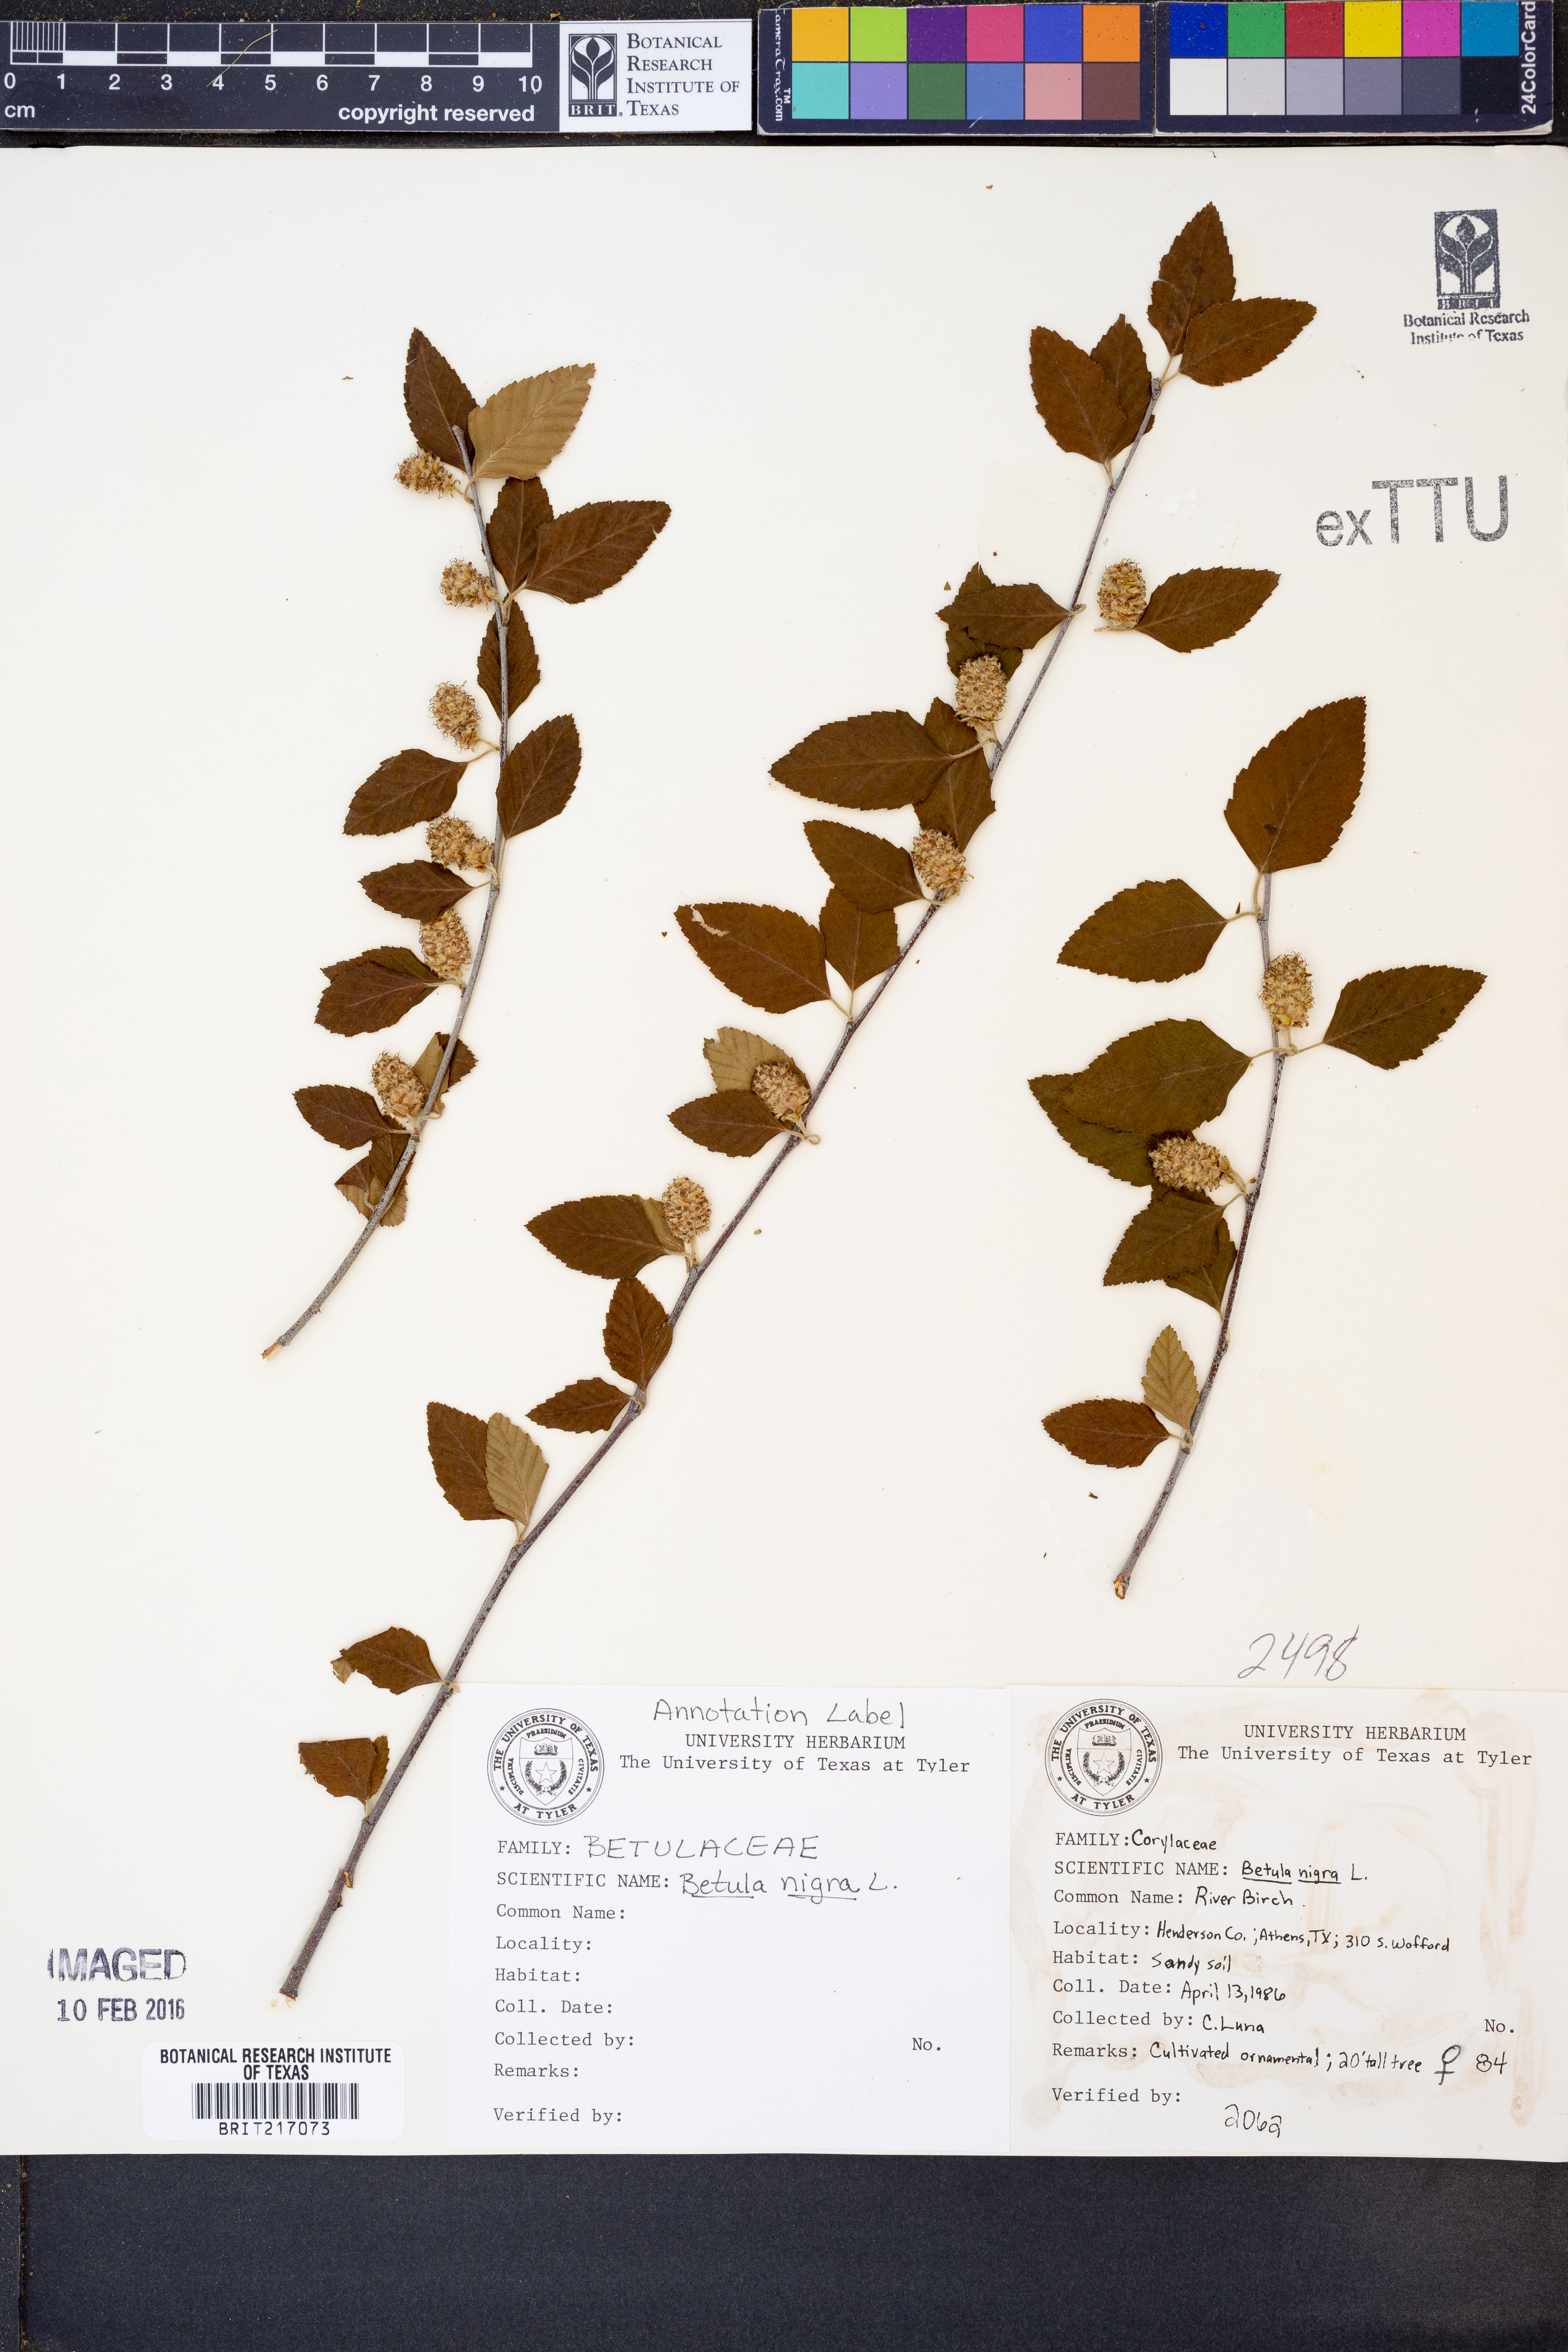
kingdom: Plantae
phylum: Tracheophyta
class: Magnoliopsida
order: Fagales
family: Betulaceae
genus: Betula
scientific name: Betula nigra
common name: Black birch
